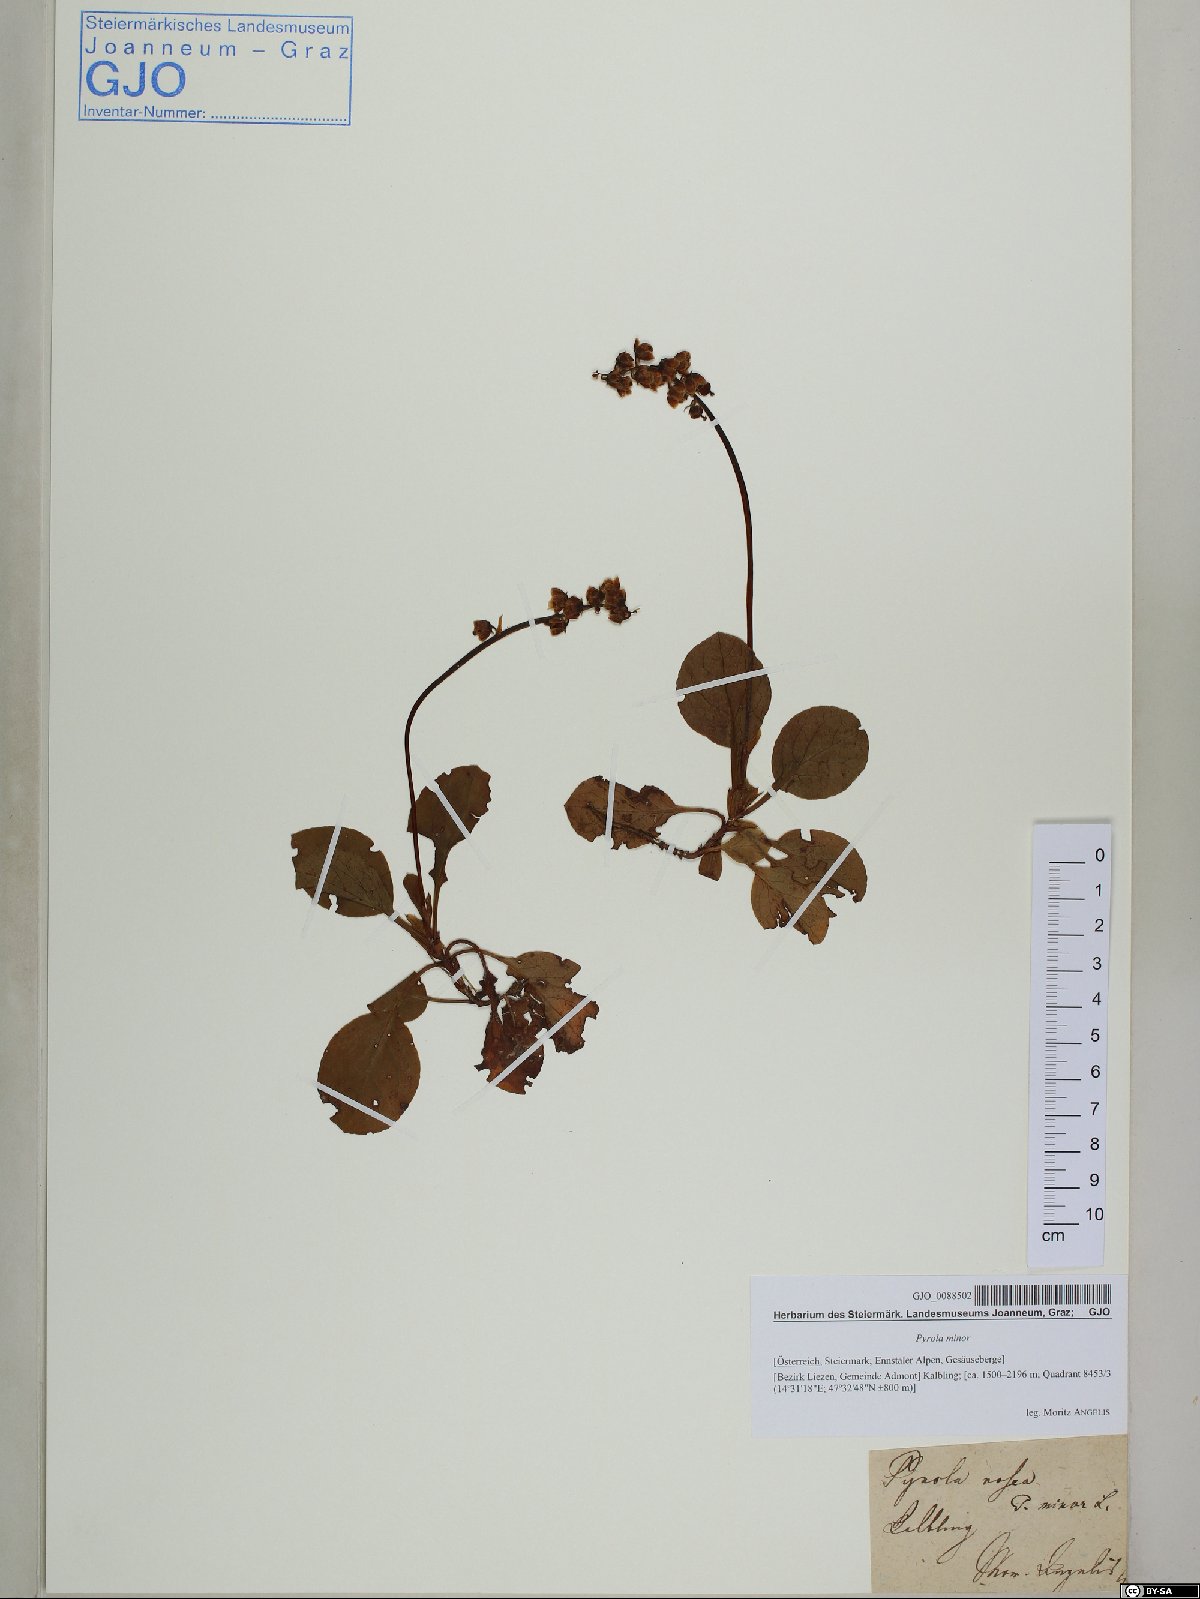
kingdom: Plantae
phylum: Tracheophyta
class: Magnoliopsida
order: Ericales
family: Ericaceae
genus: Pyrola
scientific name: Pyrola minor
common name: Common wintergreen
